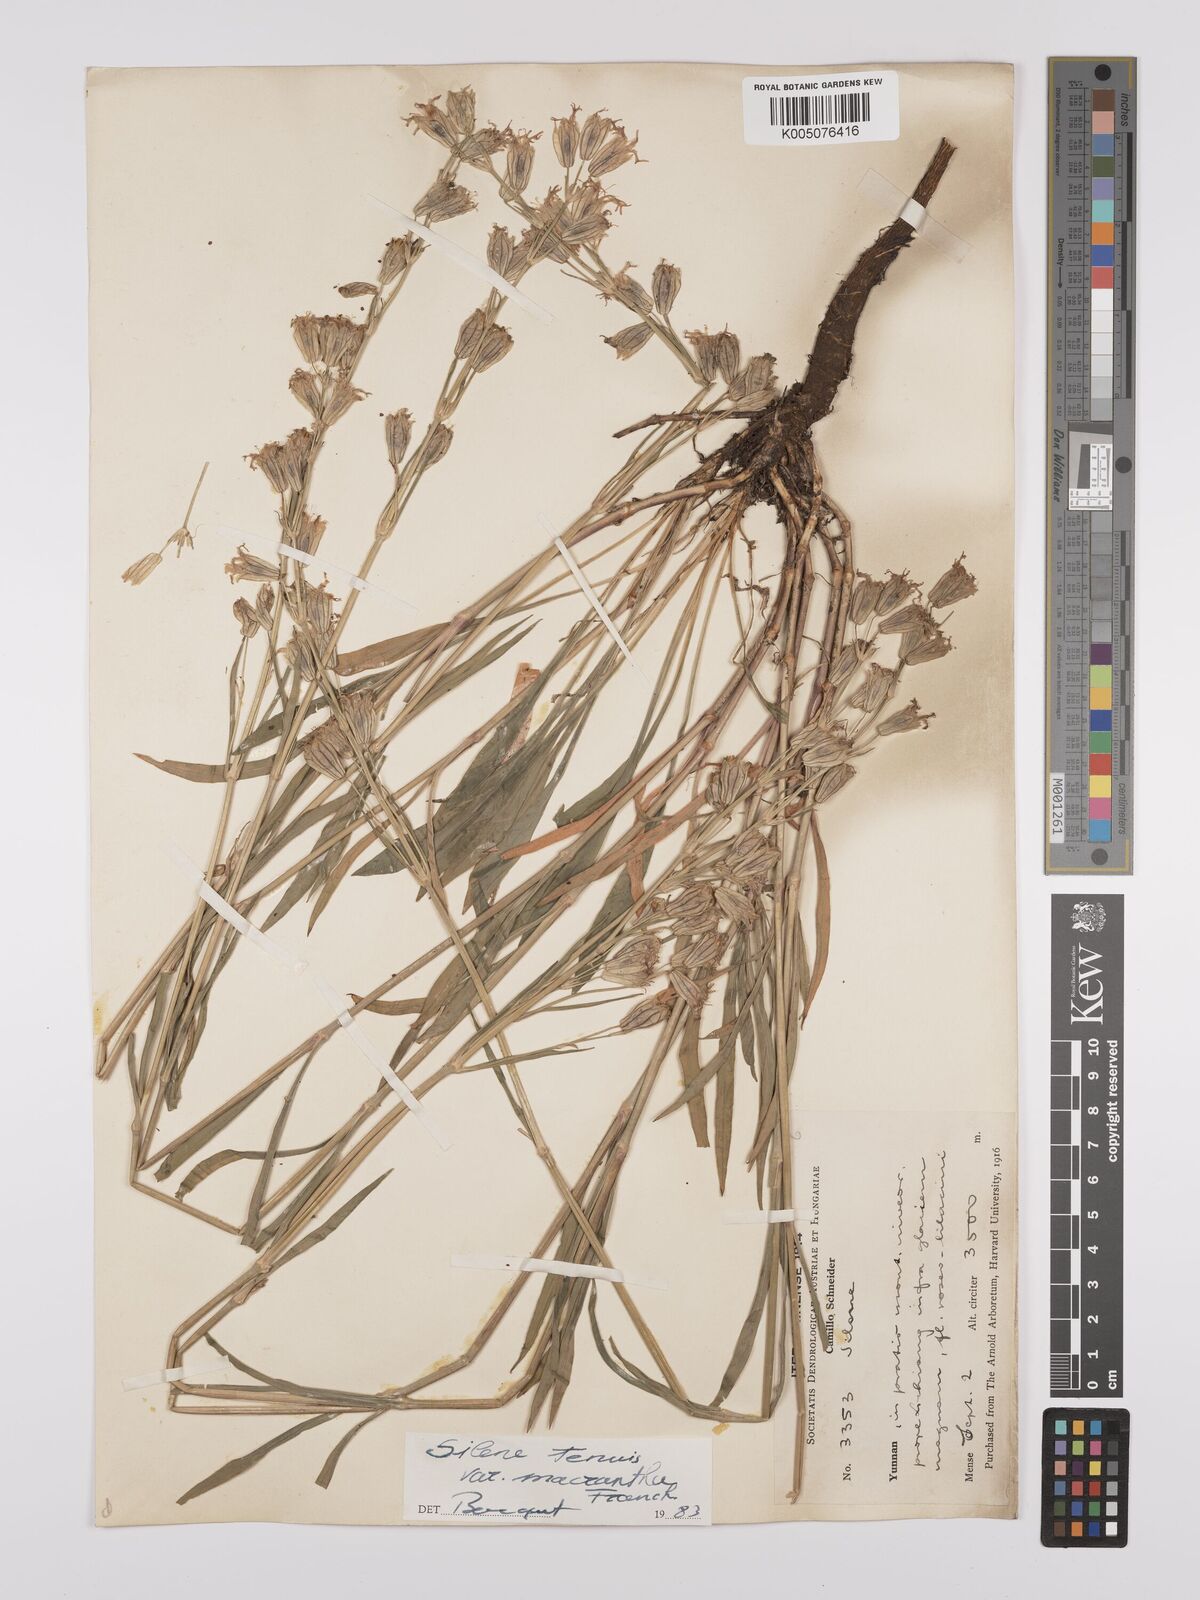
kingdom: Plantae
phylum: Tracheophyta
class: Magnoliopsida
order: Caryophyllales
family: Caryophyllaceae
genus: Silene
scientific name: Silene
